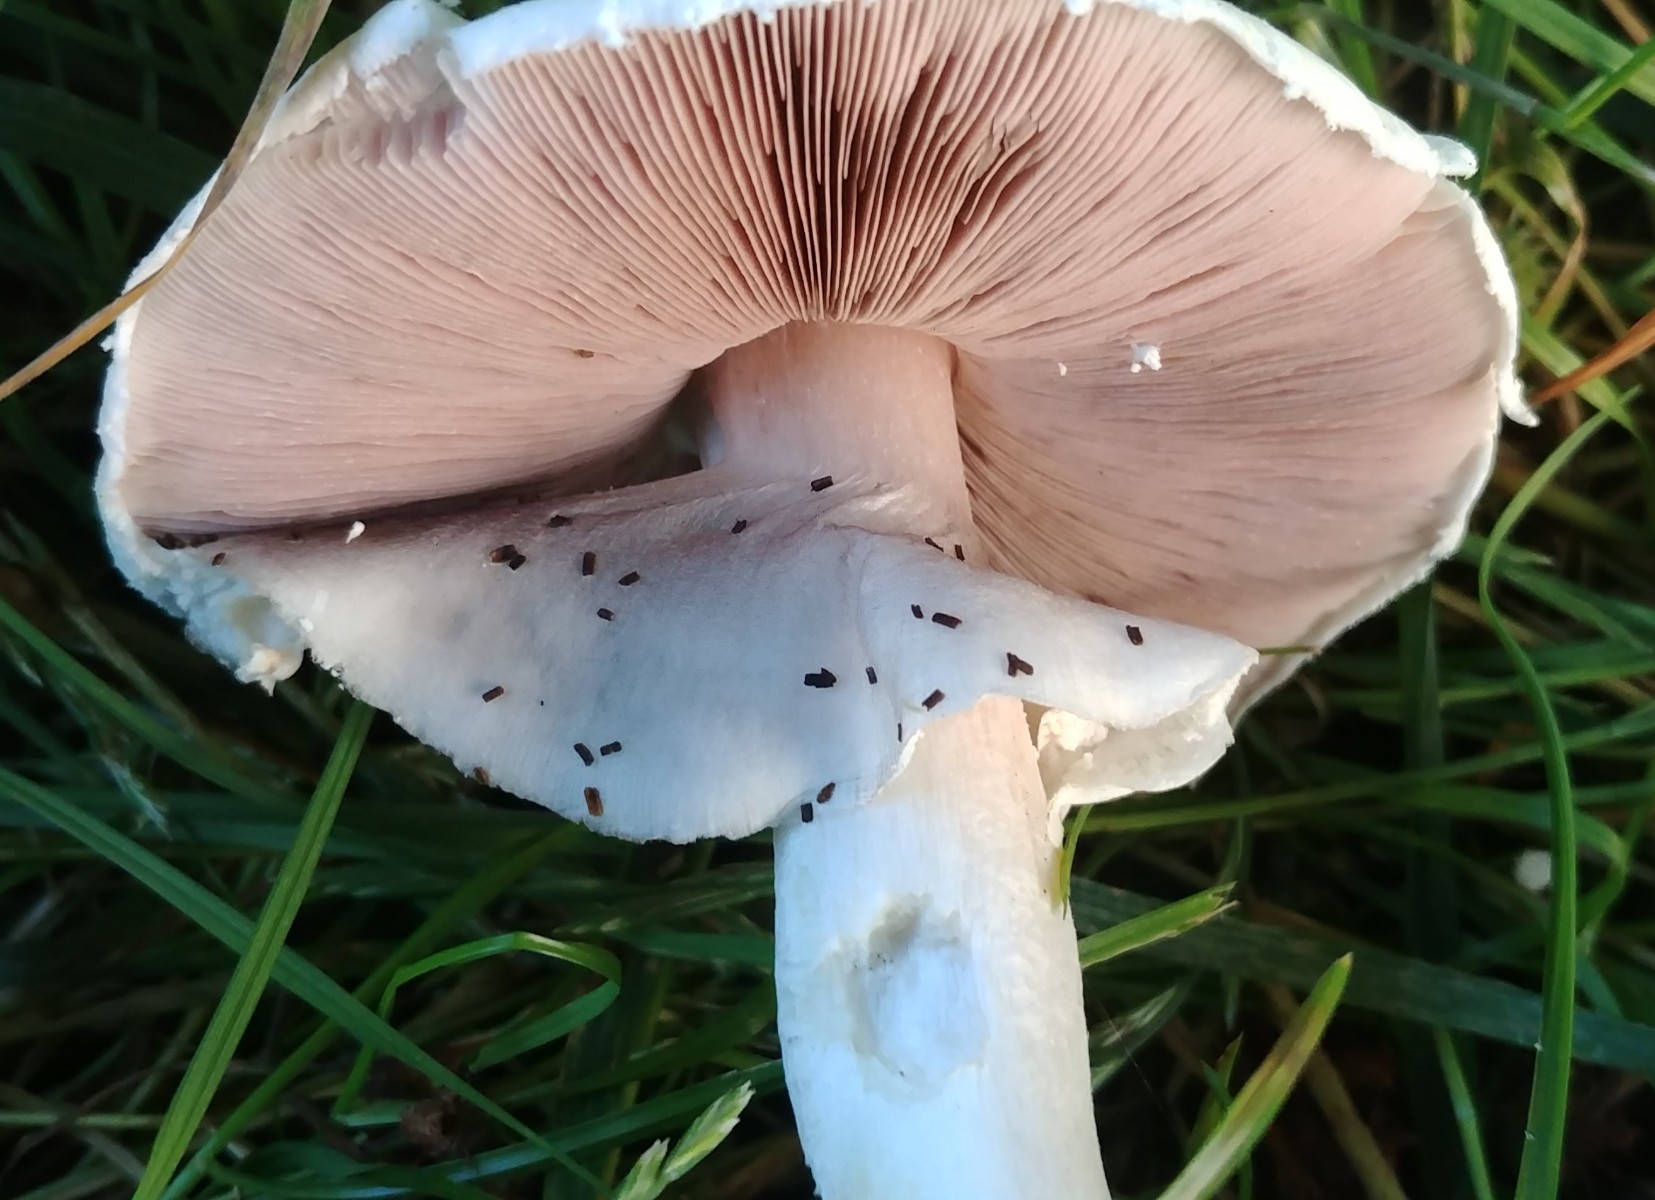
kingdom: Fungi
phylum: Basidiomycota
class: Agaricomycetes
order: Agaricales
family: Agaricaceae
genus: Agaricus
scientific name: Agaricus arvensis
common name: ager-champignon
